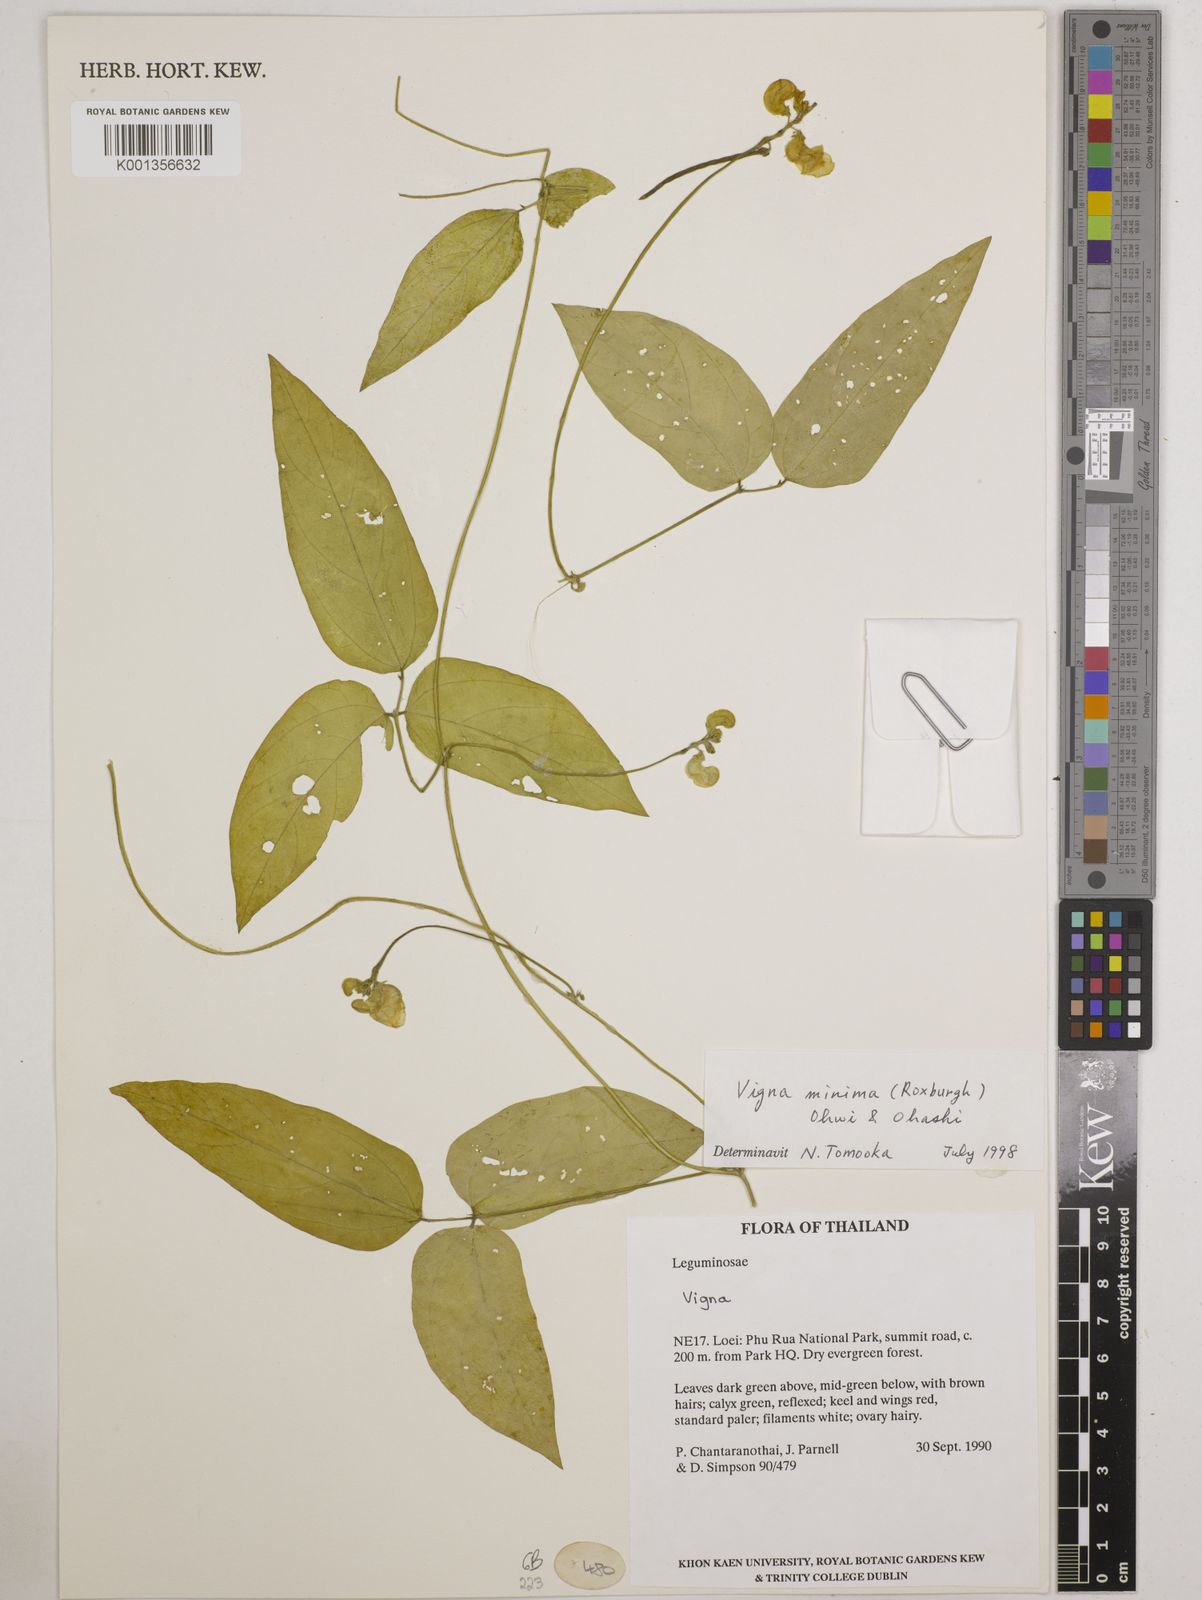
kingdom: Plantae
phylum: Tracheophyta
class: Magnoliopsida
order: Fabales
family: Fabaceae
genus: Vigna
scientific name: Vigna minima
